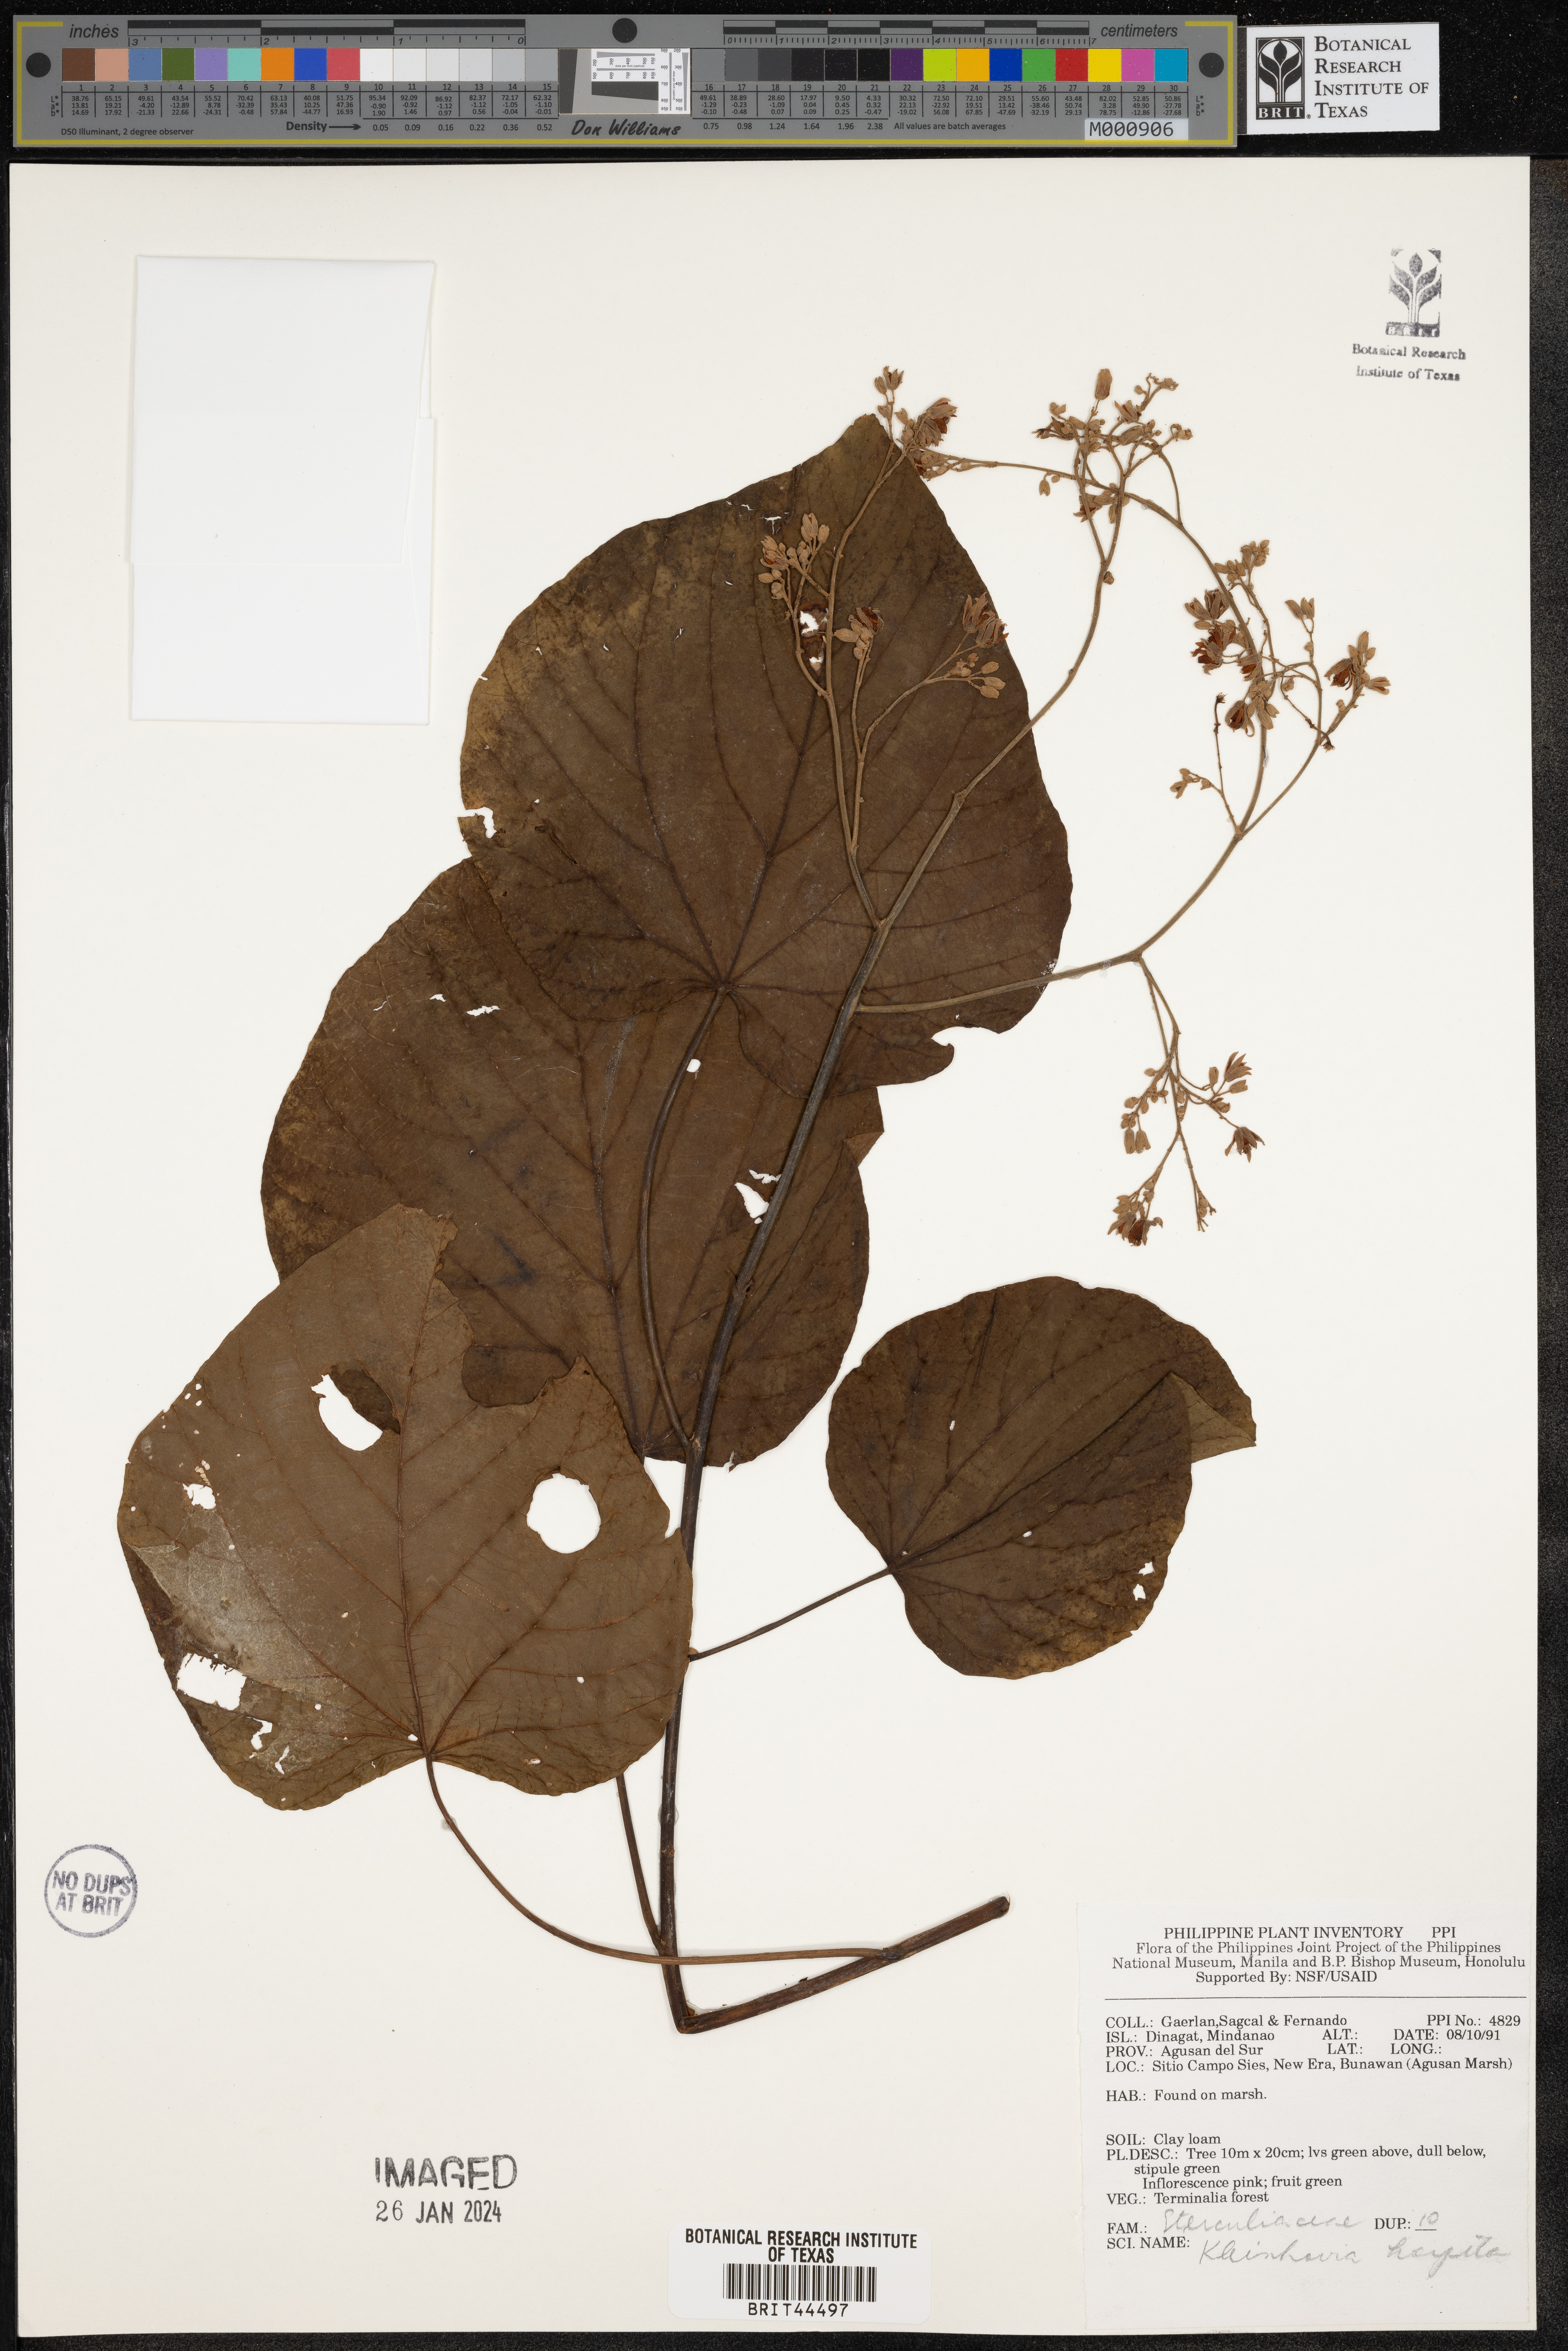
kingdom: Plantae
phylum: Tracheophyta
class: Magnoliopsida
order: Malvales
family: Malvaceae
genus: Kleinhovia
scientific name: Kleinhovia hospita
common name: Guest-tree
